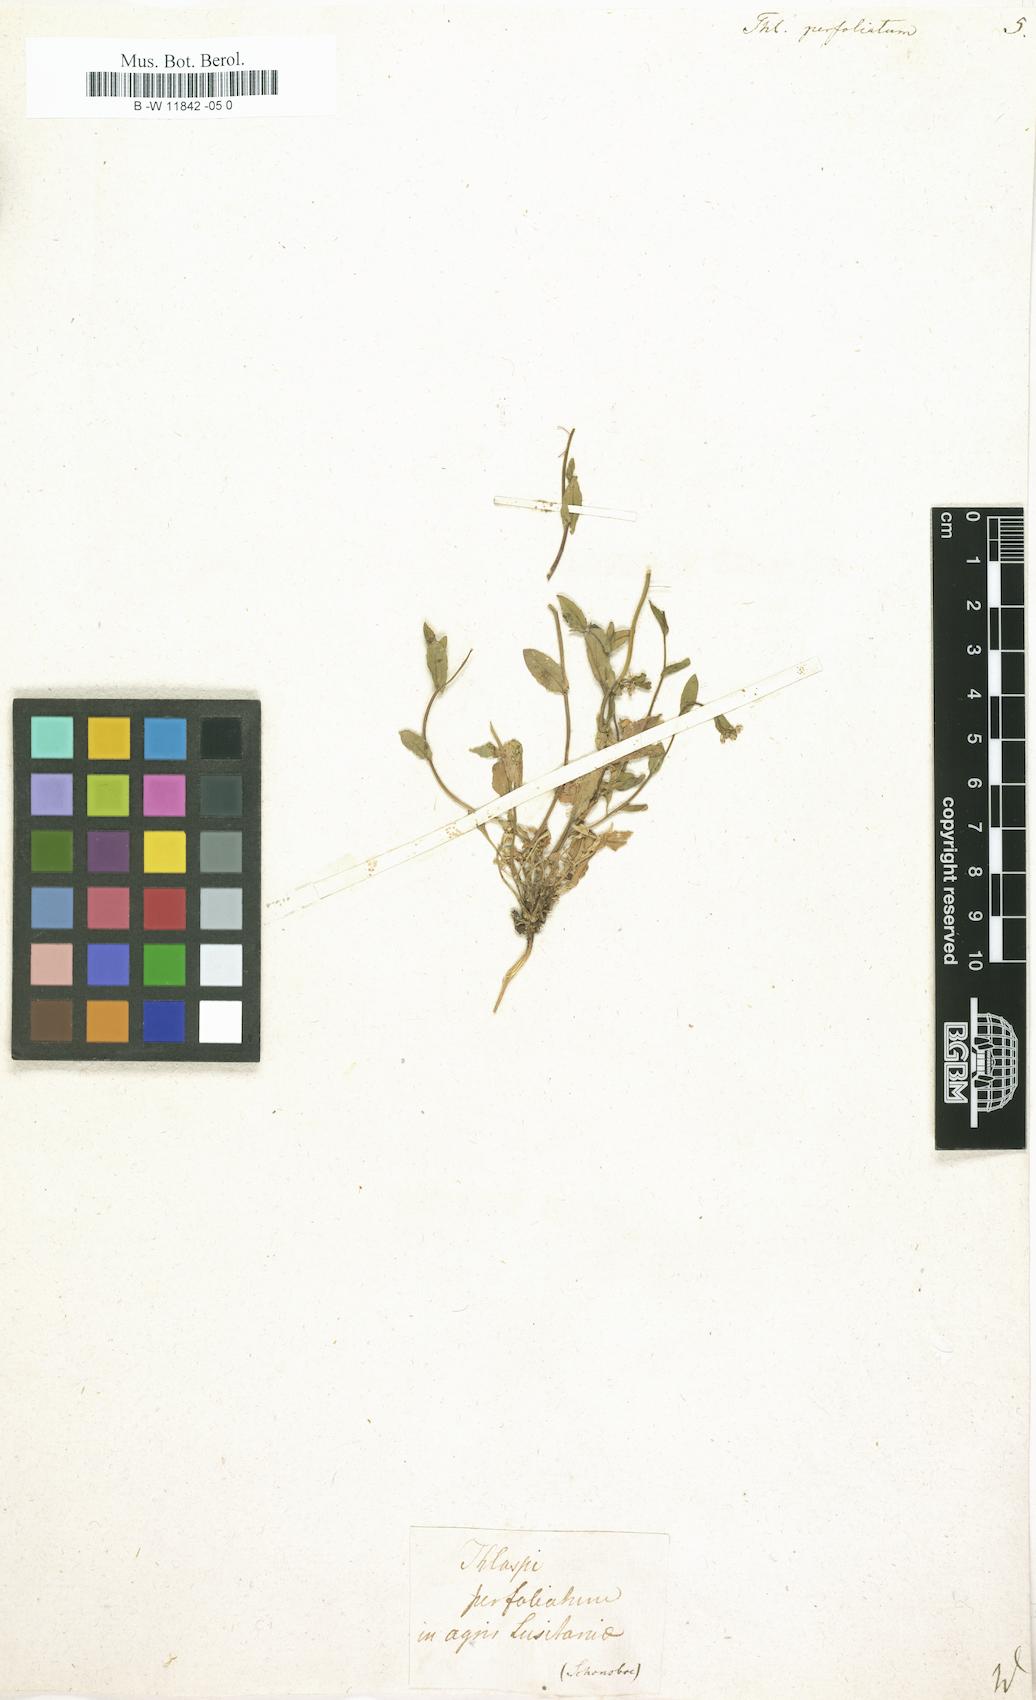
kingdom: Plantae
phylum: Tracheophyta
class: Magnoliopsida
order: Brassicales
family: Brassicaceae
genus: Noccaea
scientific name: Noccaea perfoliata
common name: Perfoliate pennycress
